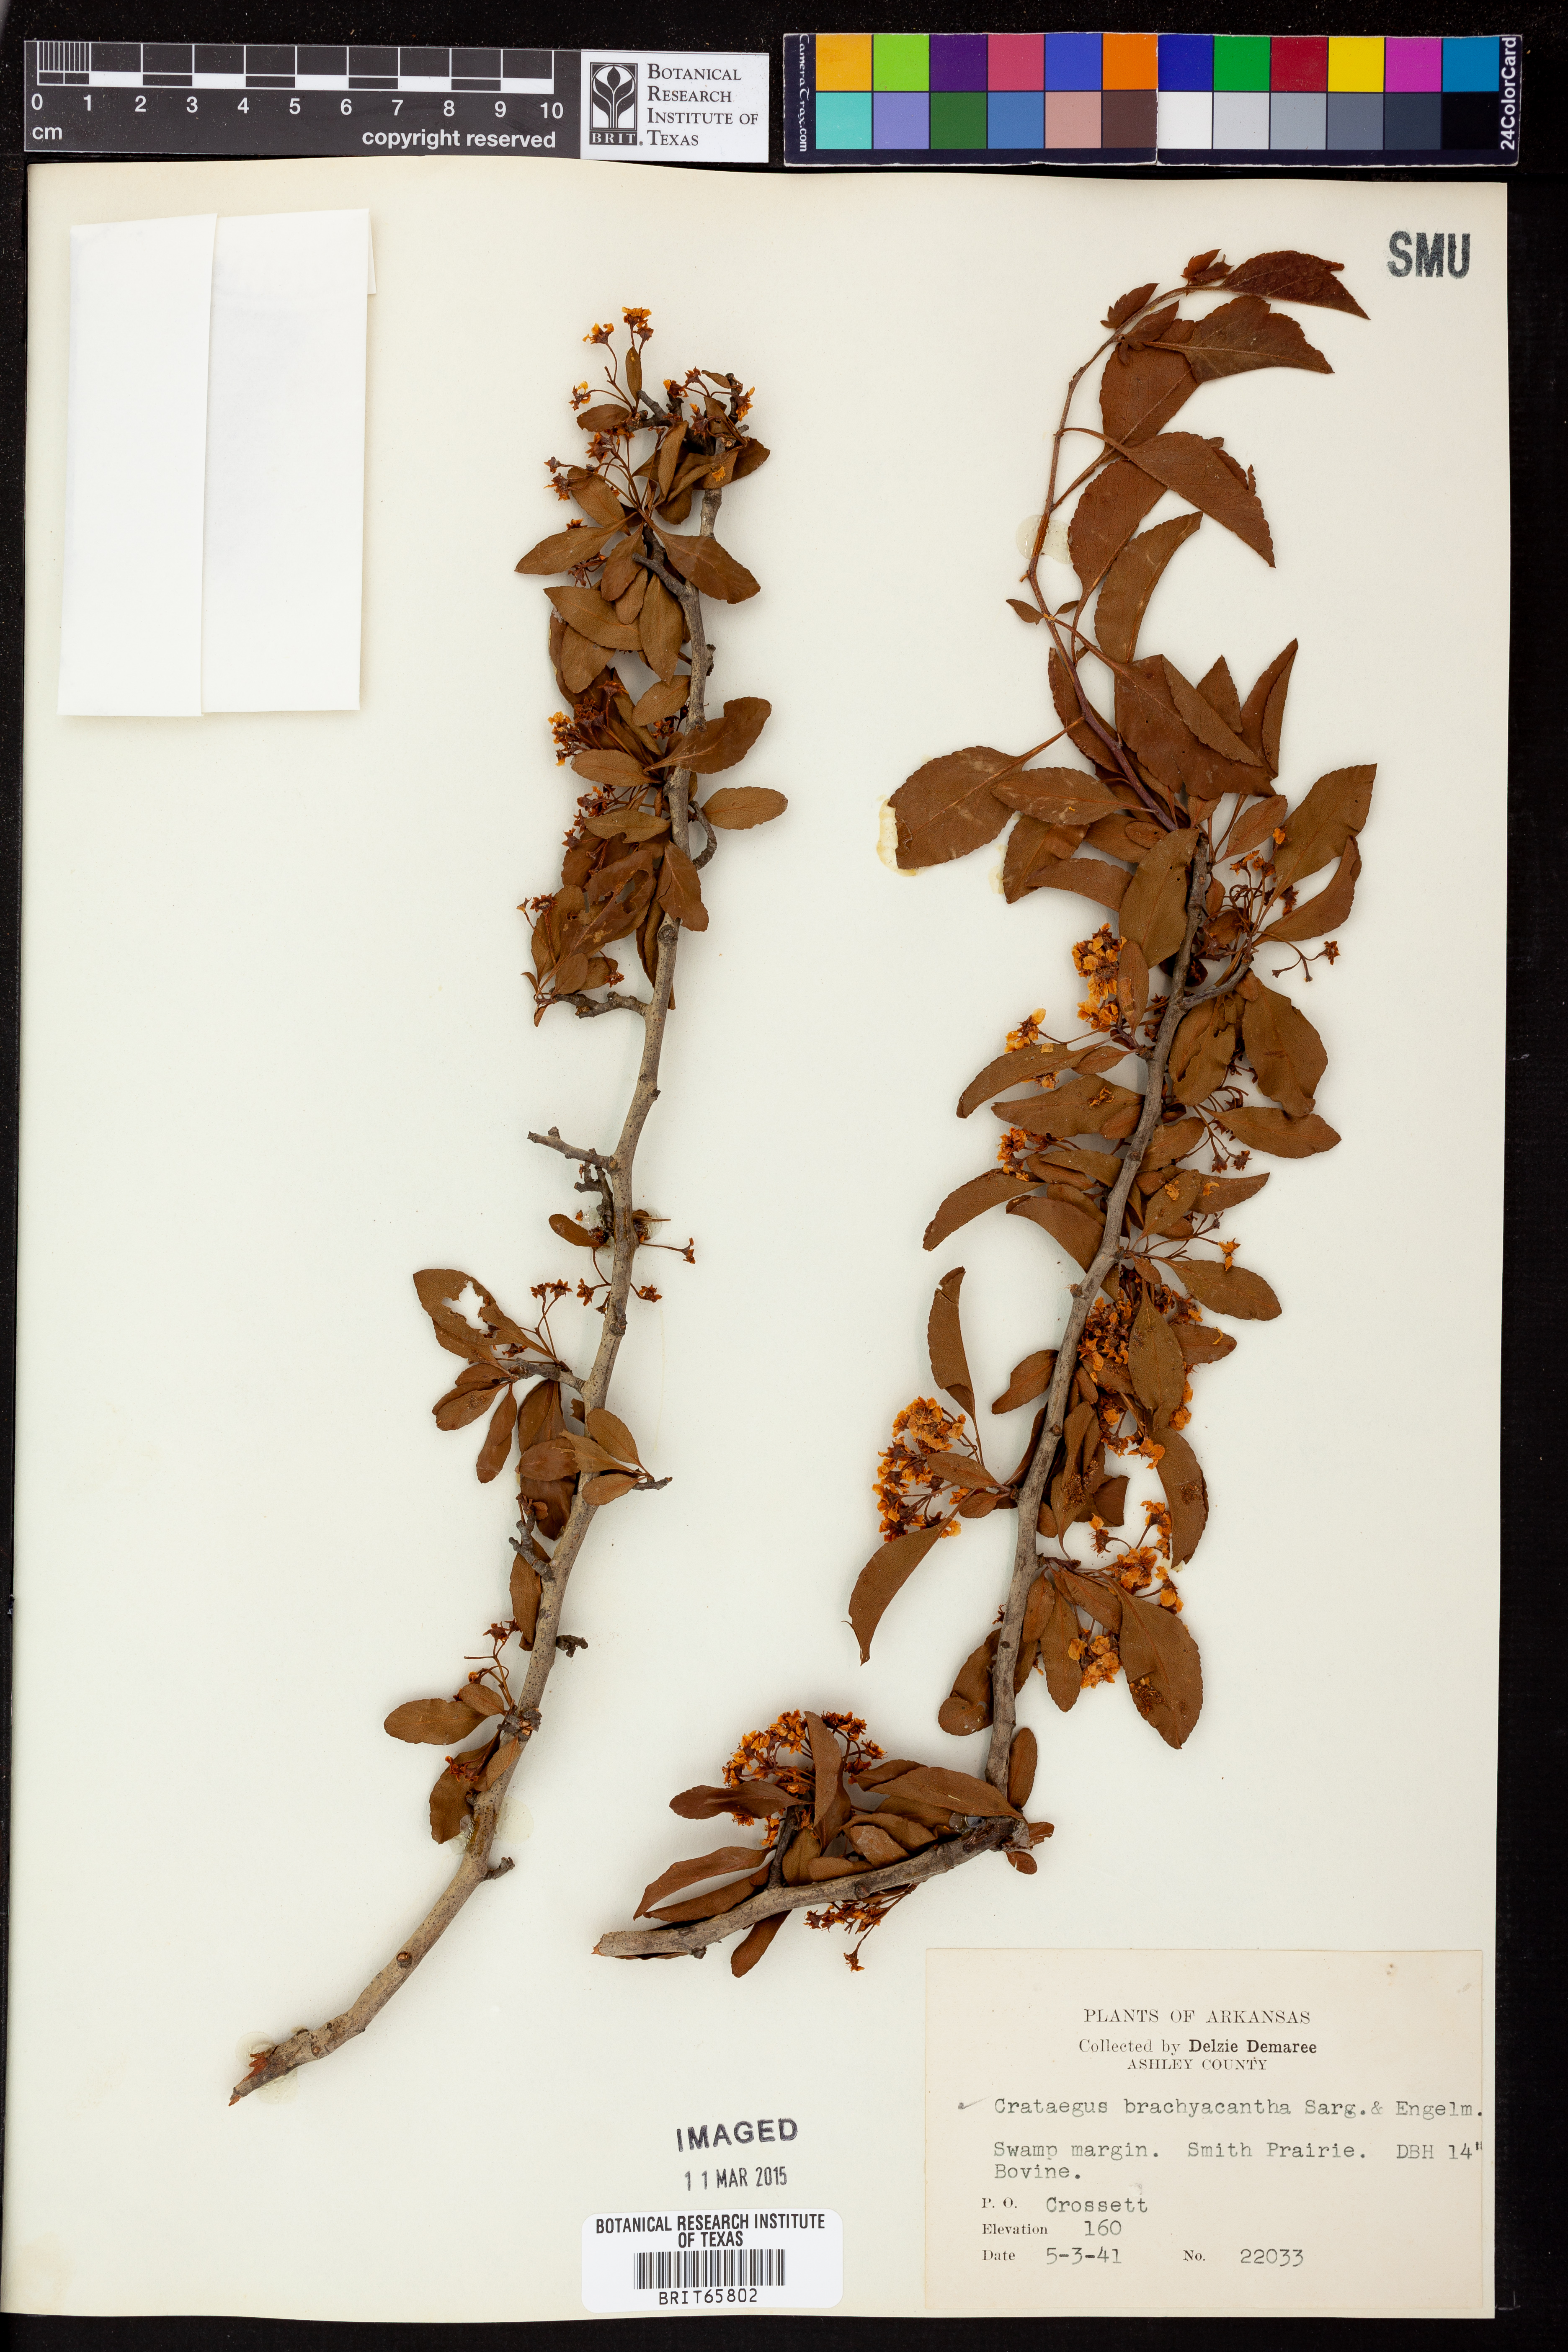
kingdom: Plantae
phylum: Tracheophyta
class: Magnoliopsida
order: Rosales
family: Rosaceae
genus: Crataegus
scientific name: Crataegus brachyacantha
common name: Blueberry-hawthorn
